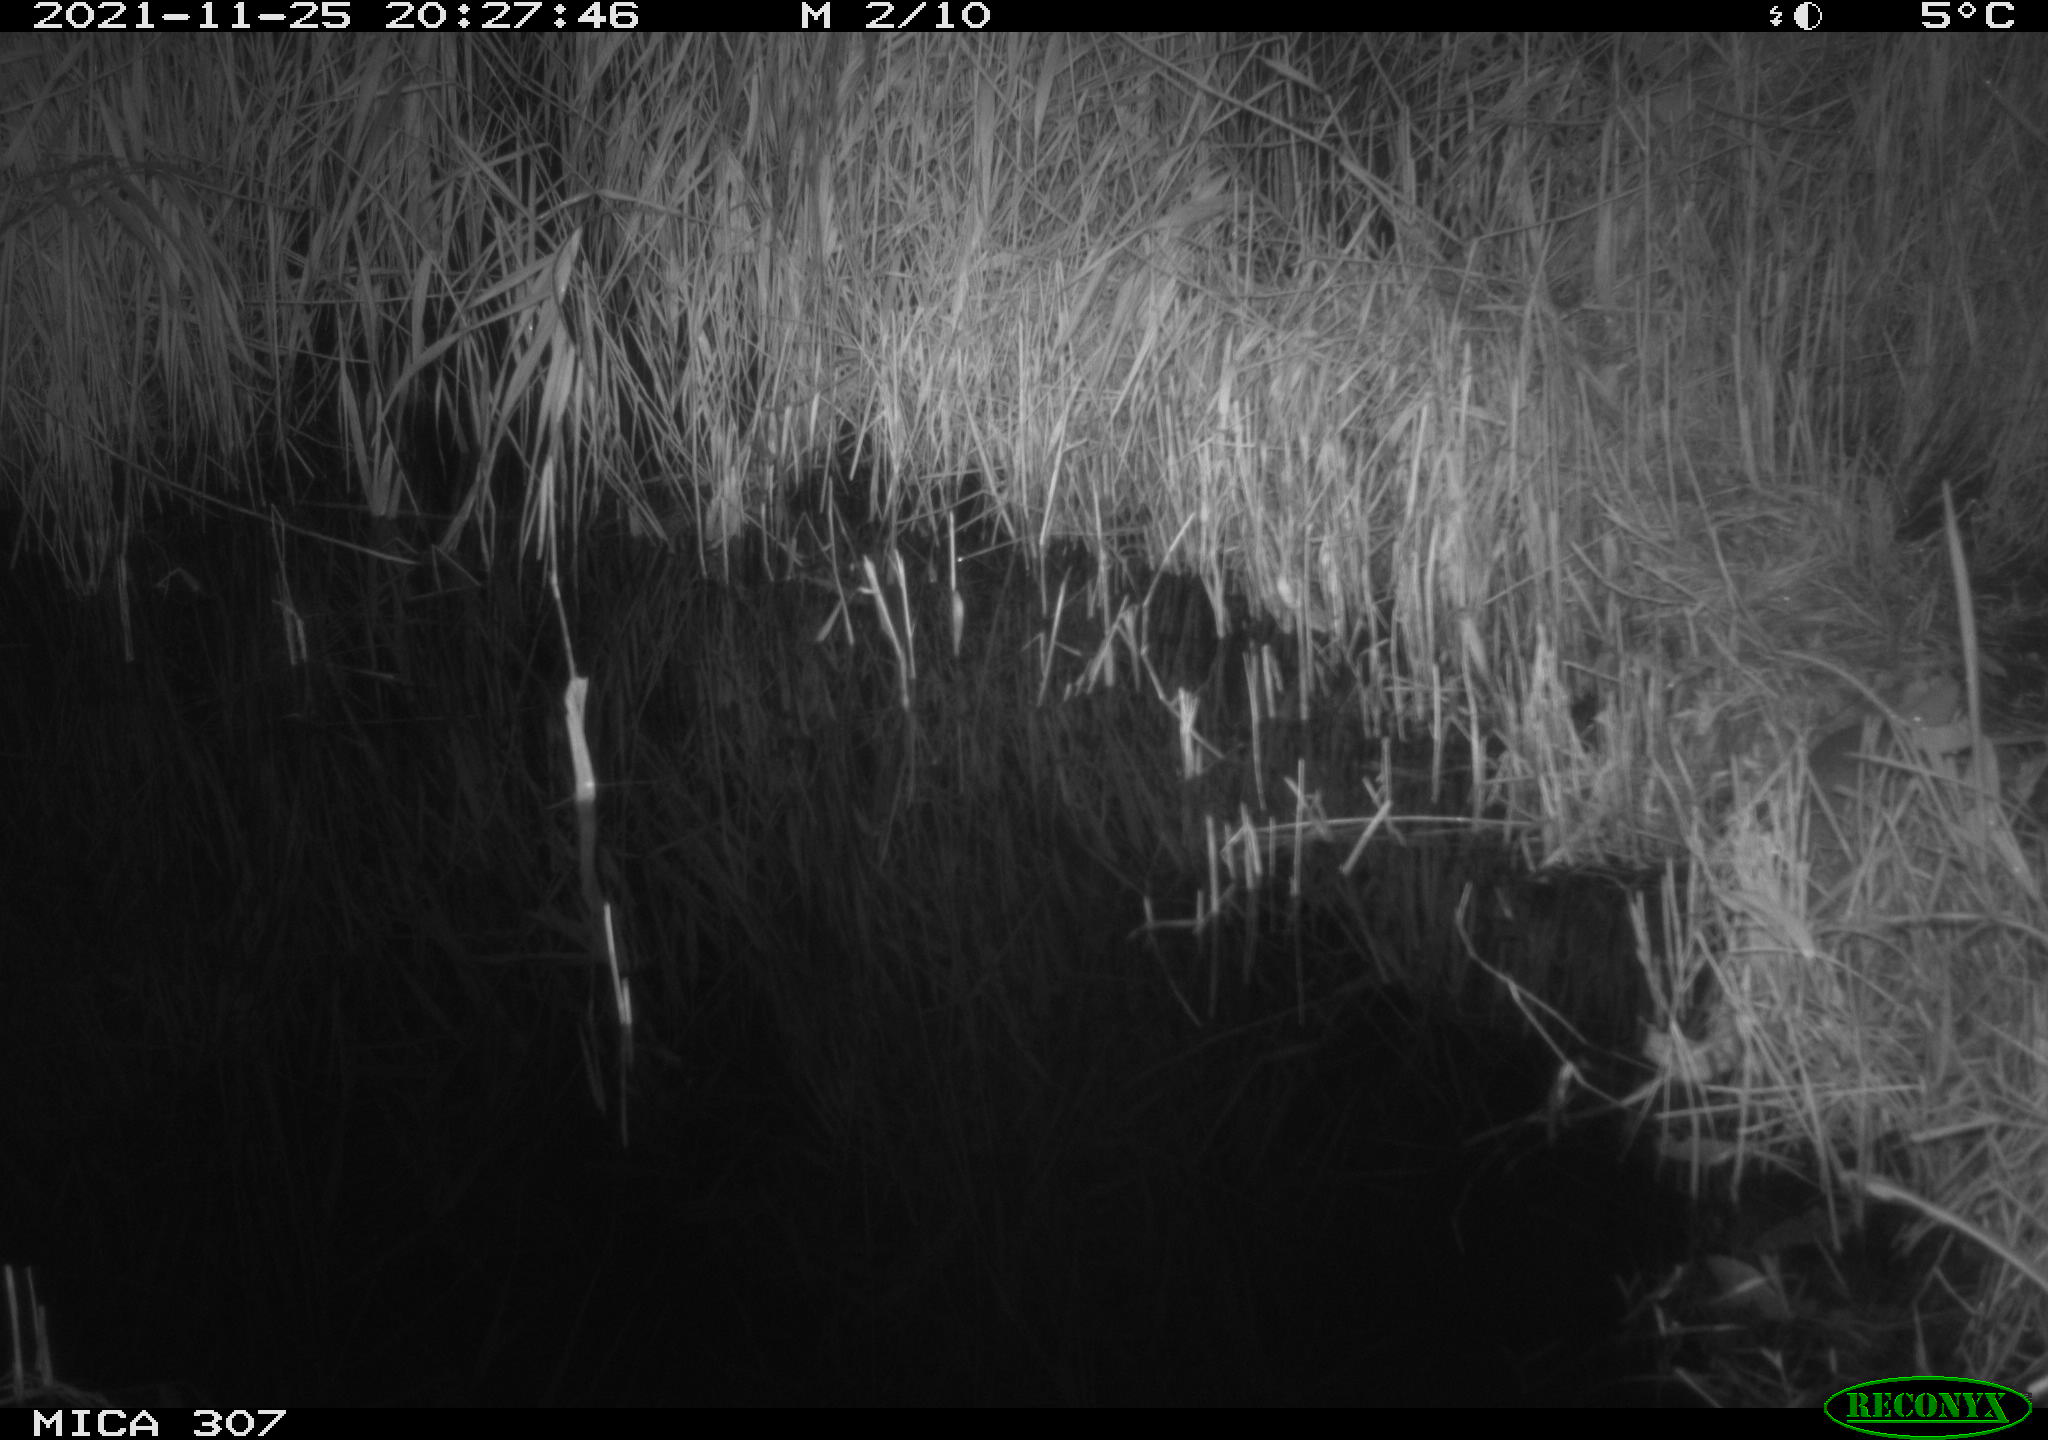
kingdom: Animalia
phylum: Chordata
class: Mammalia
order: Rodentia
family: Muridae
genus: Rattus
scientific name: Rattus norvegicus
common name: Brown rat
